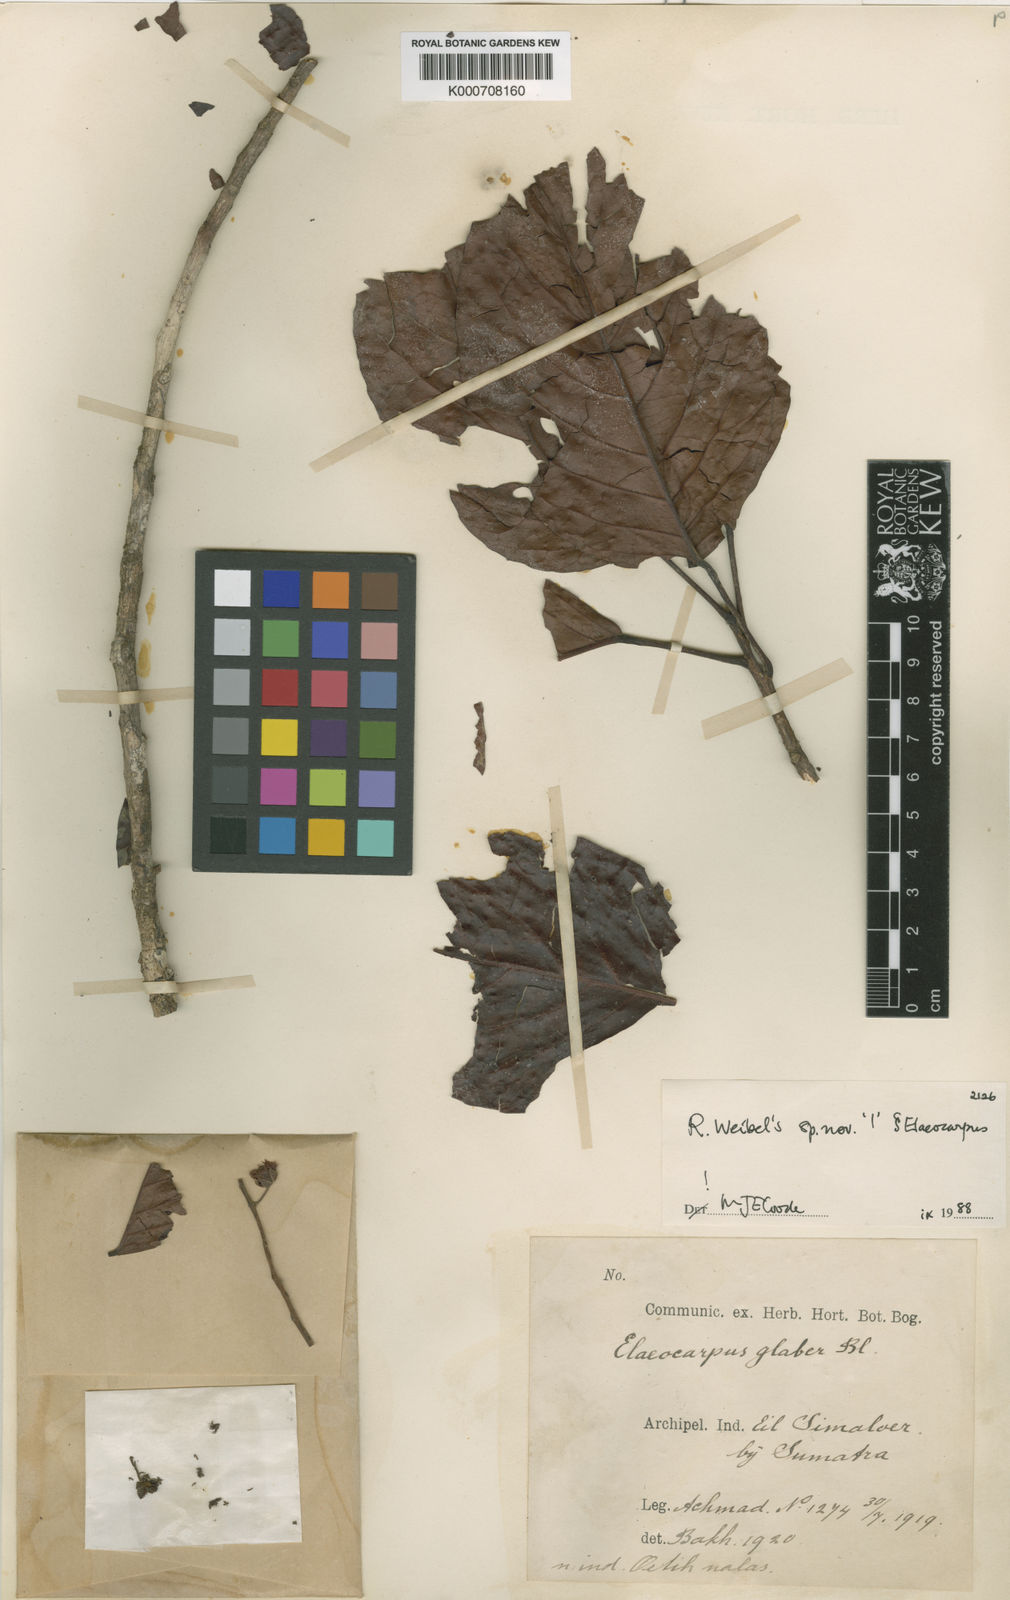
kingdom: Plantae
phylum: Tracheophyta
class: Magnoliopsida
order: Oxalidales
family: Elaeocarpaceae
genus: Elaeocarpus
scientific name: Elaeocarpus simaluensis
